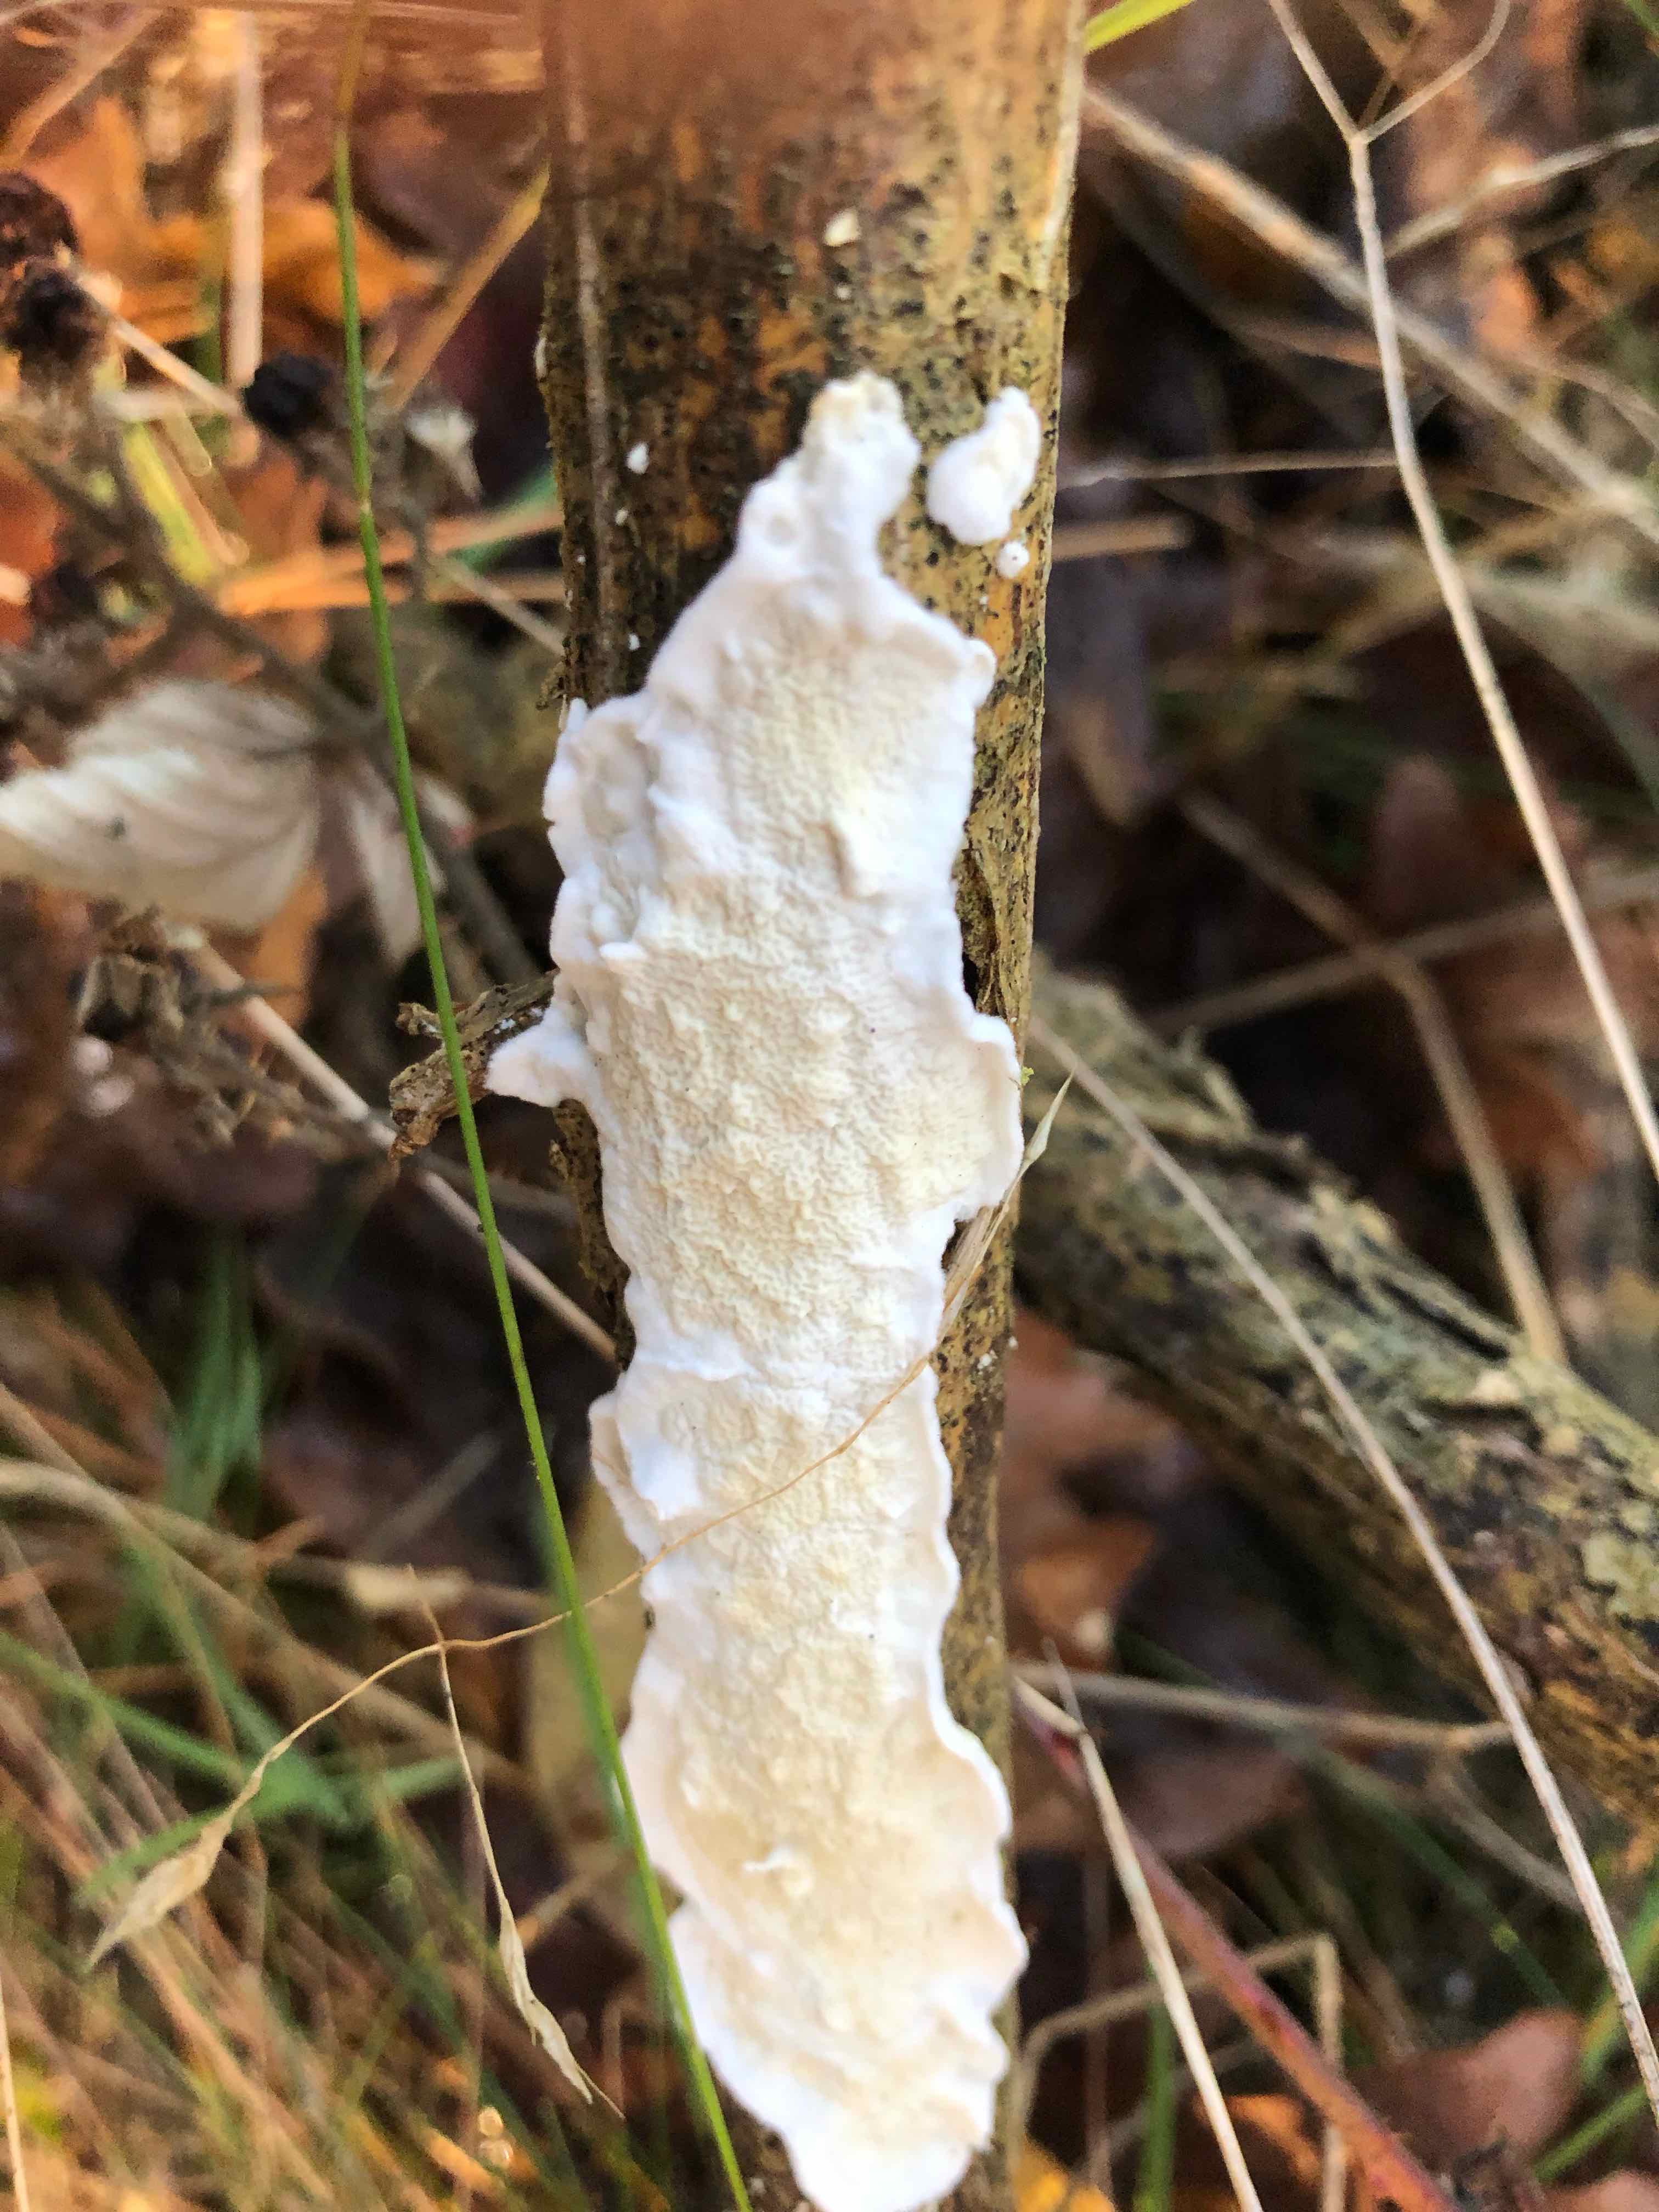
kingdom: Fungi
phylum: Basidiomycota
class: Agaricomycetes
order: Polyporales
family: Irpicaceae
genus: Byssomerulius
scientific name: Byssomerulius corium
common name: læder-åresvamp
